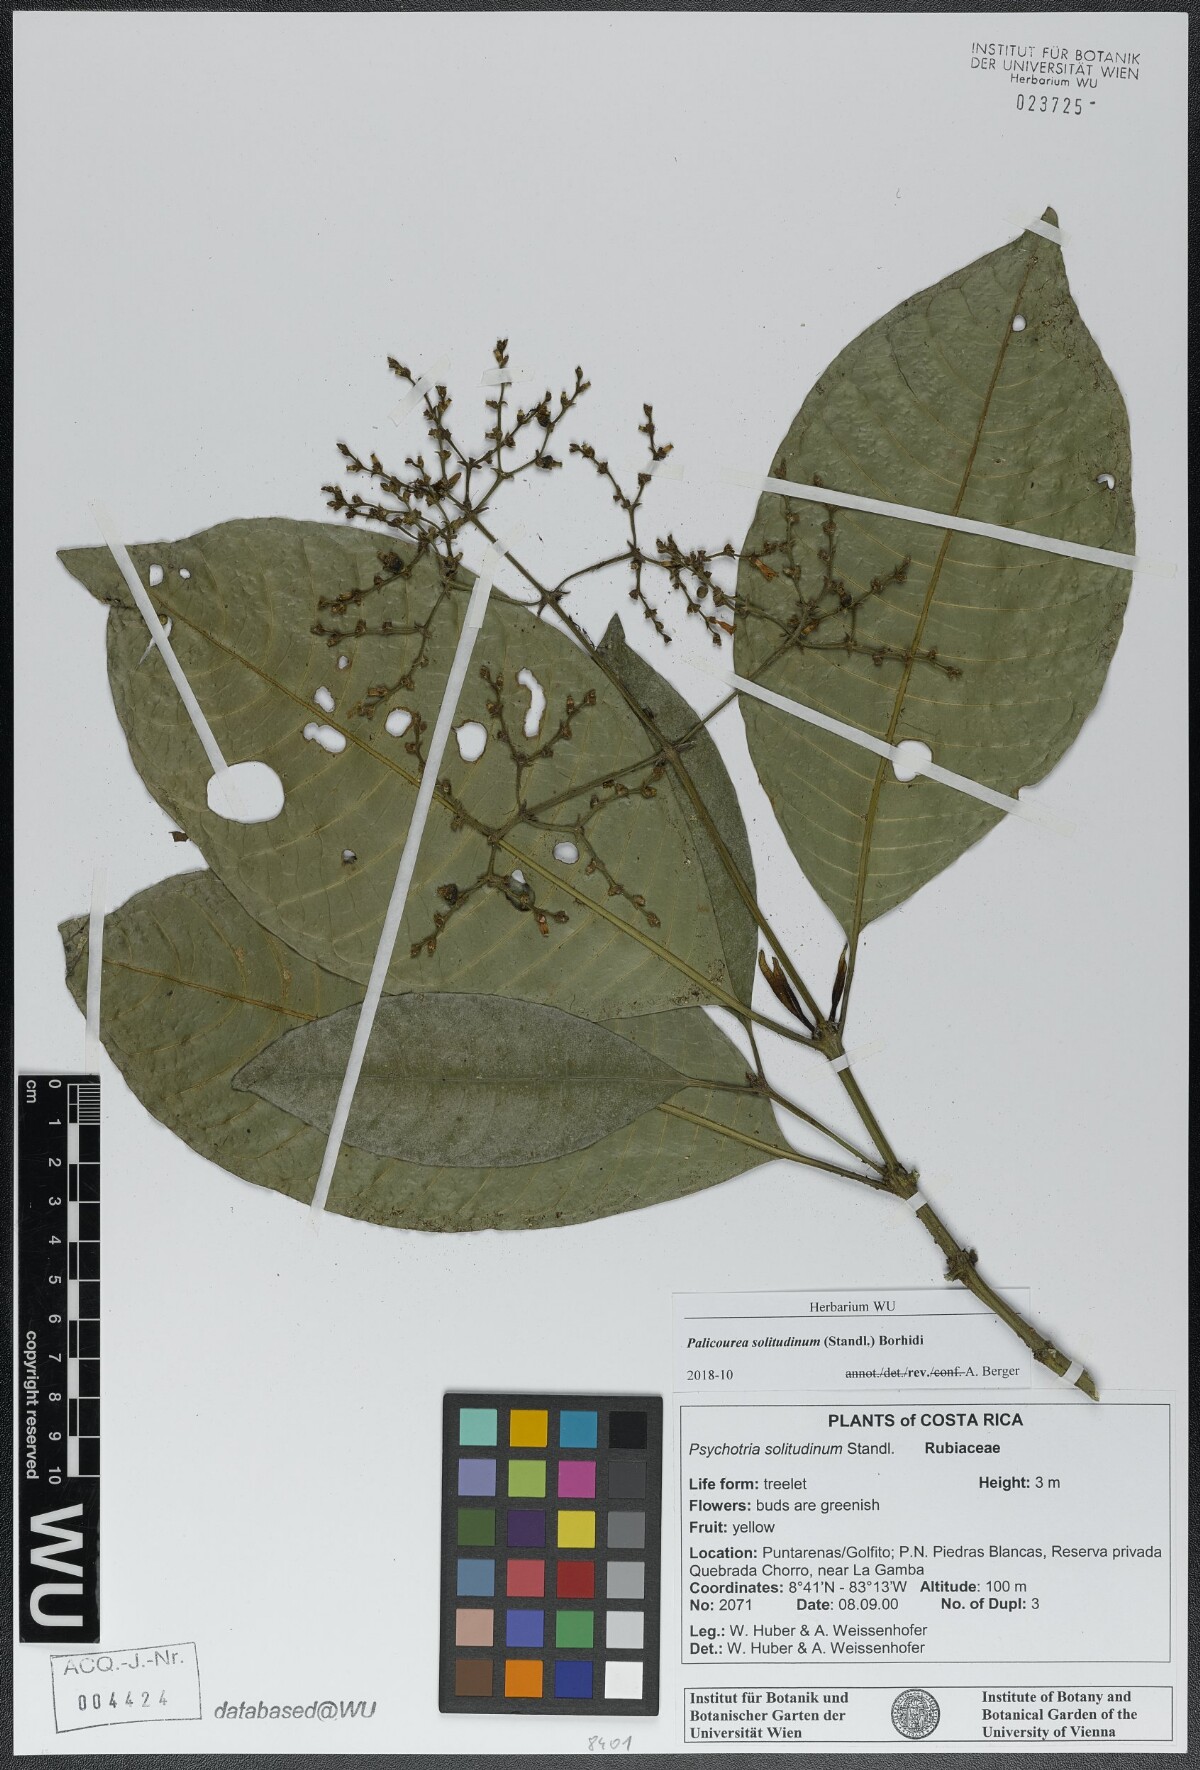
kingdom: Plantae
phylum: Tracheophyta
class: Magnoliopsida
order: Gentianales
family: Rubiaceae
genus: Palicourea
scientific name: Palicourea solitudinum
